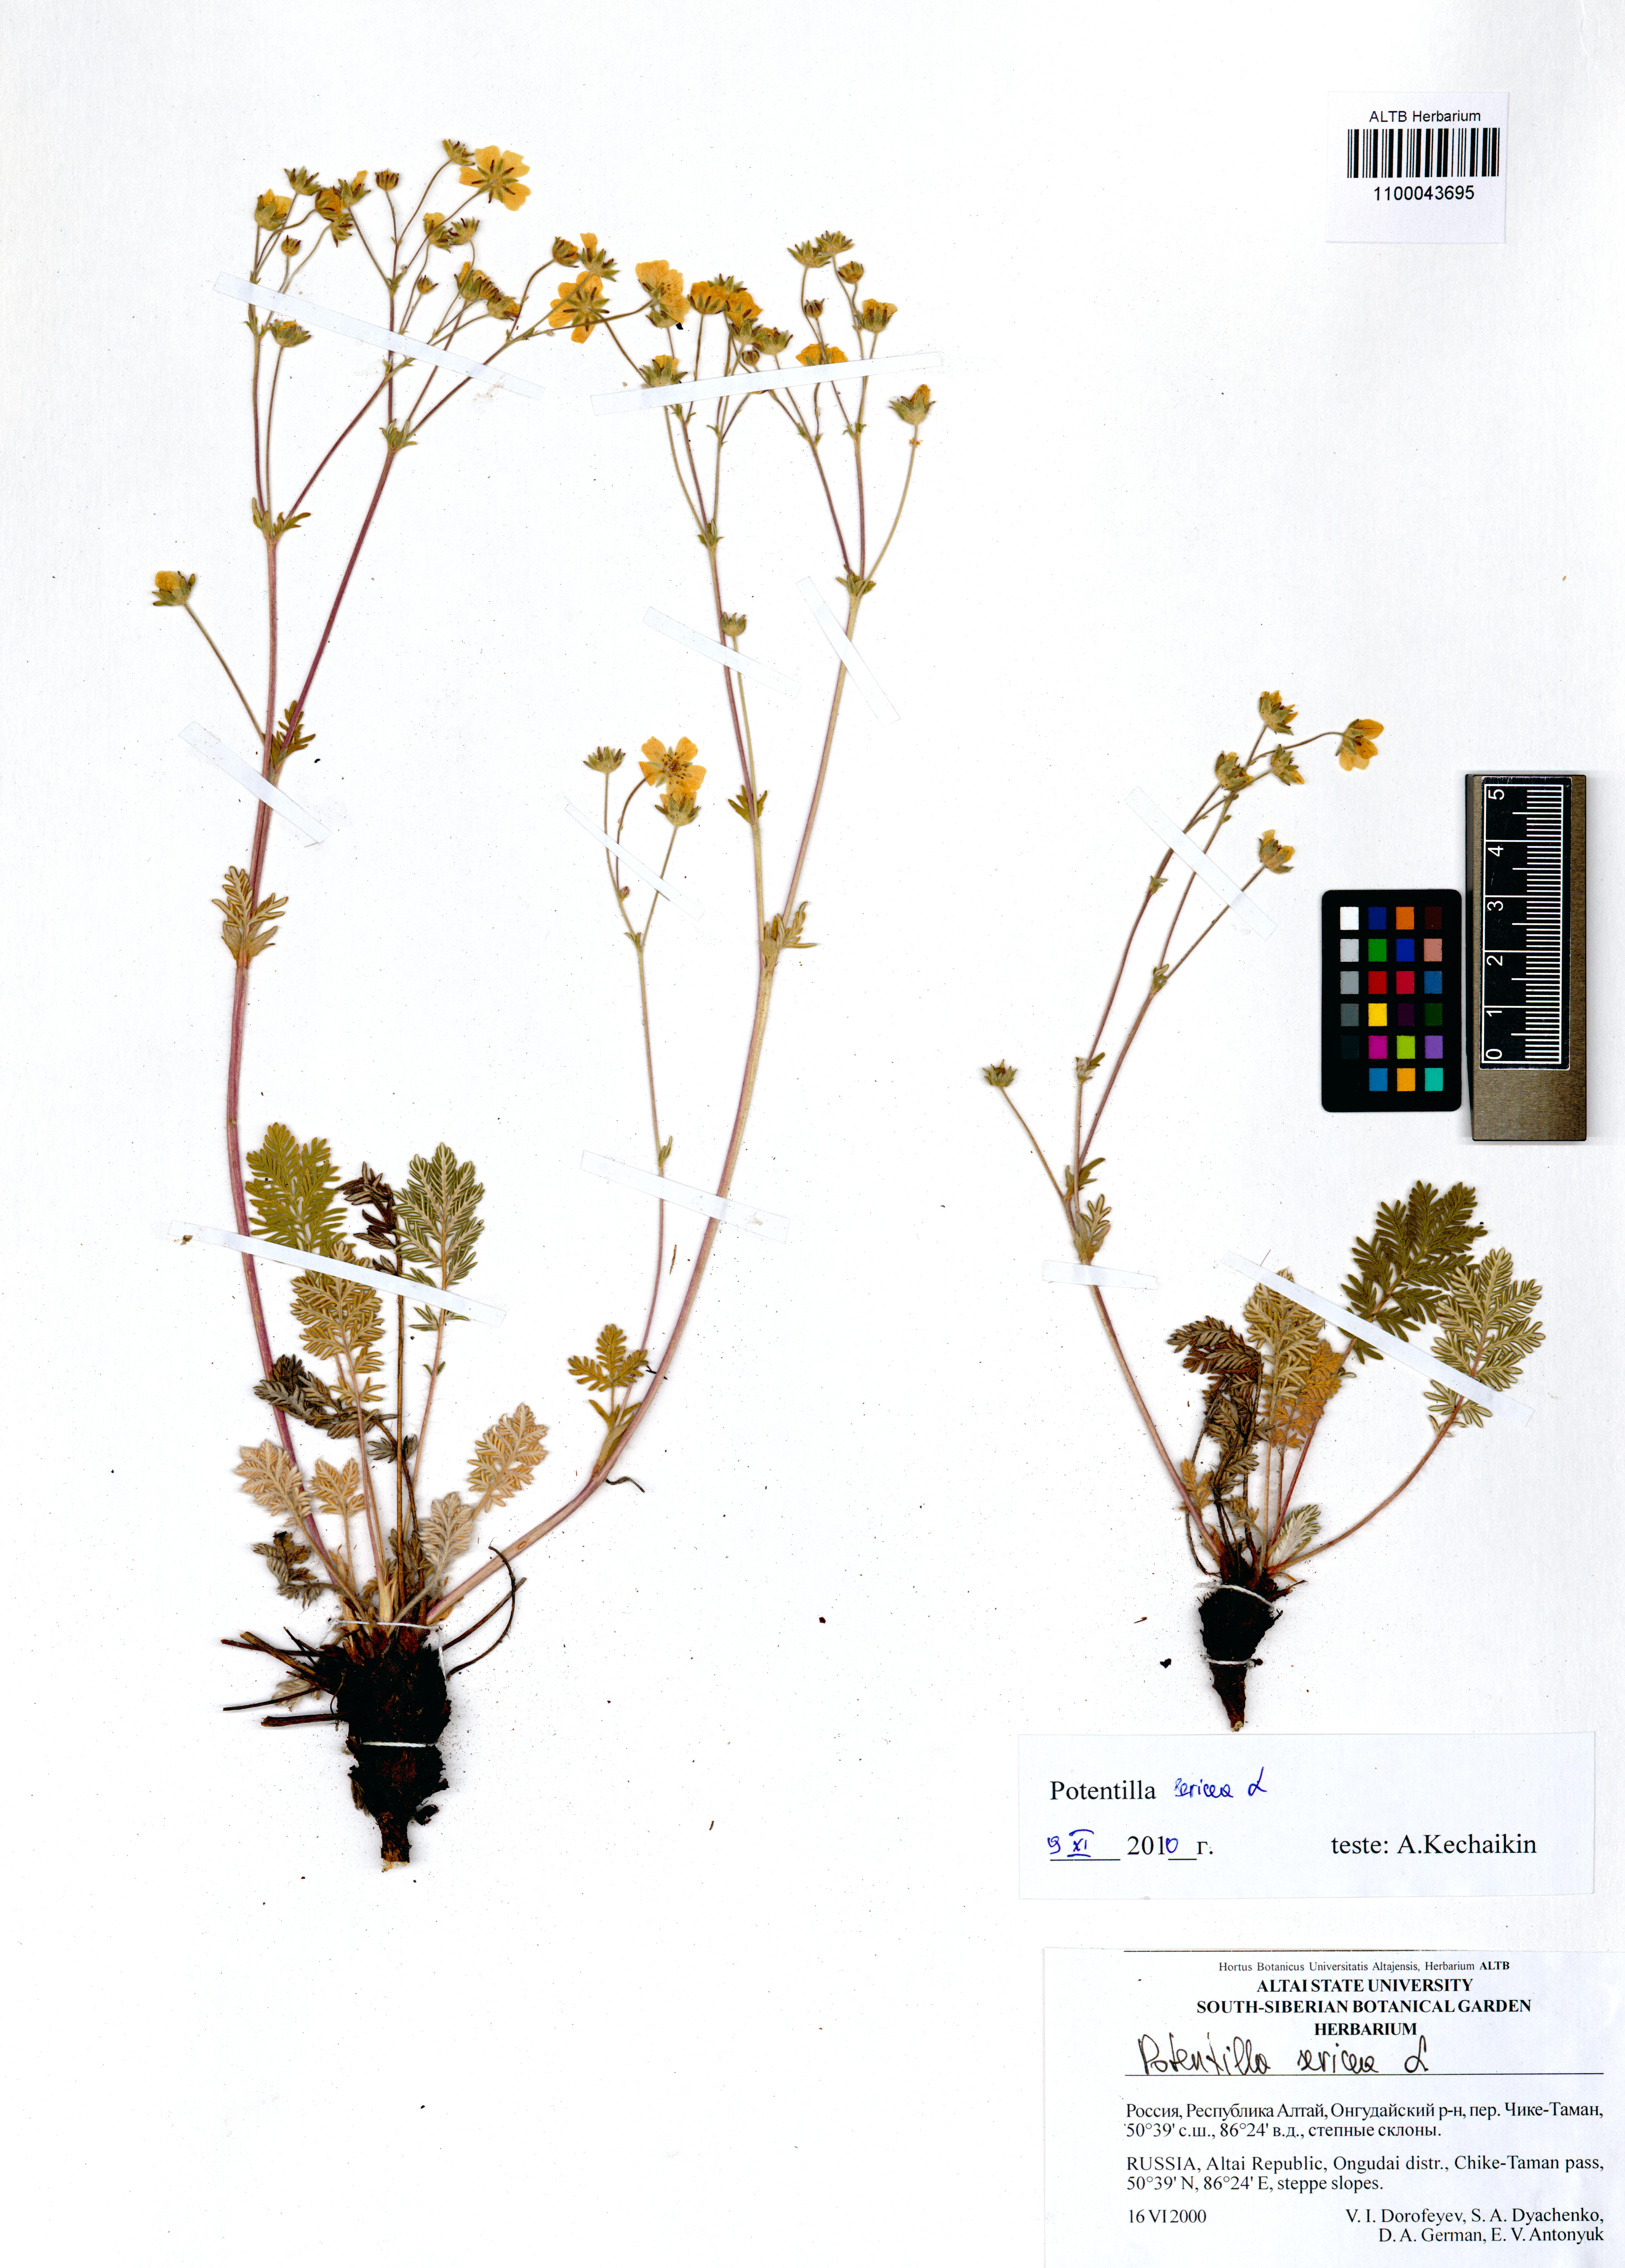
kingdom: Plantae
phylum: Tracheophyta
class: Magnoliopsida
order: Rosales
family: Rosaceae
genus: Potentilla
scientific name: Potentilla sericea
